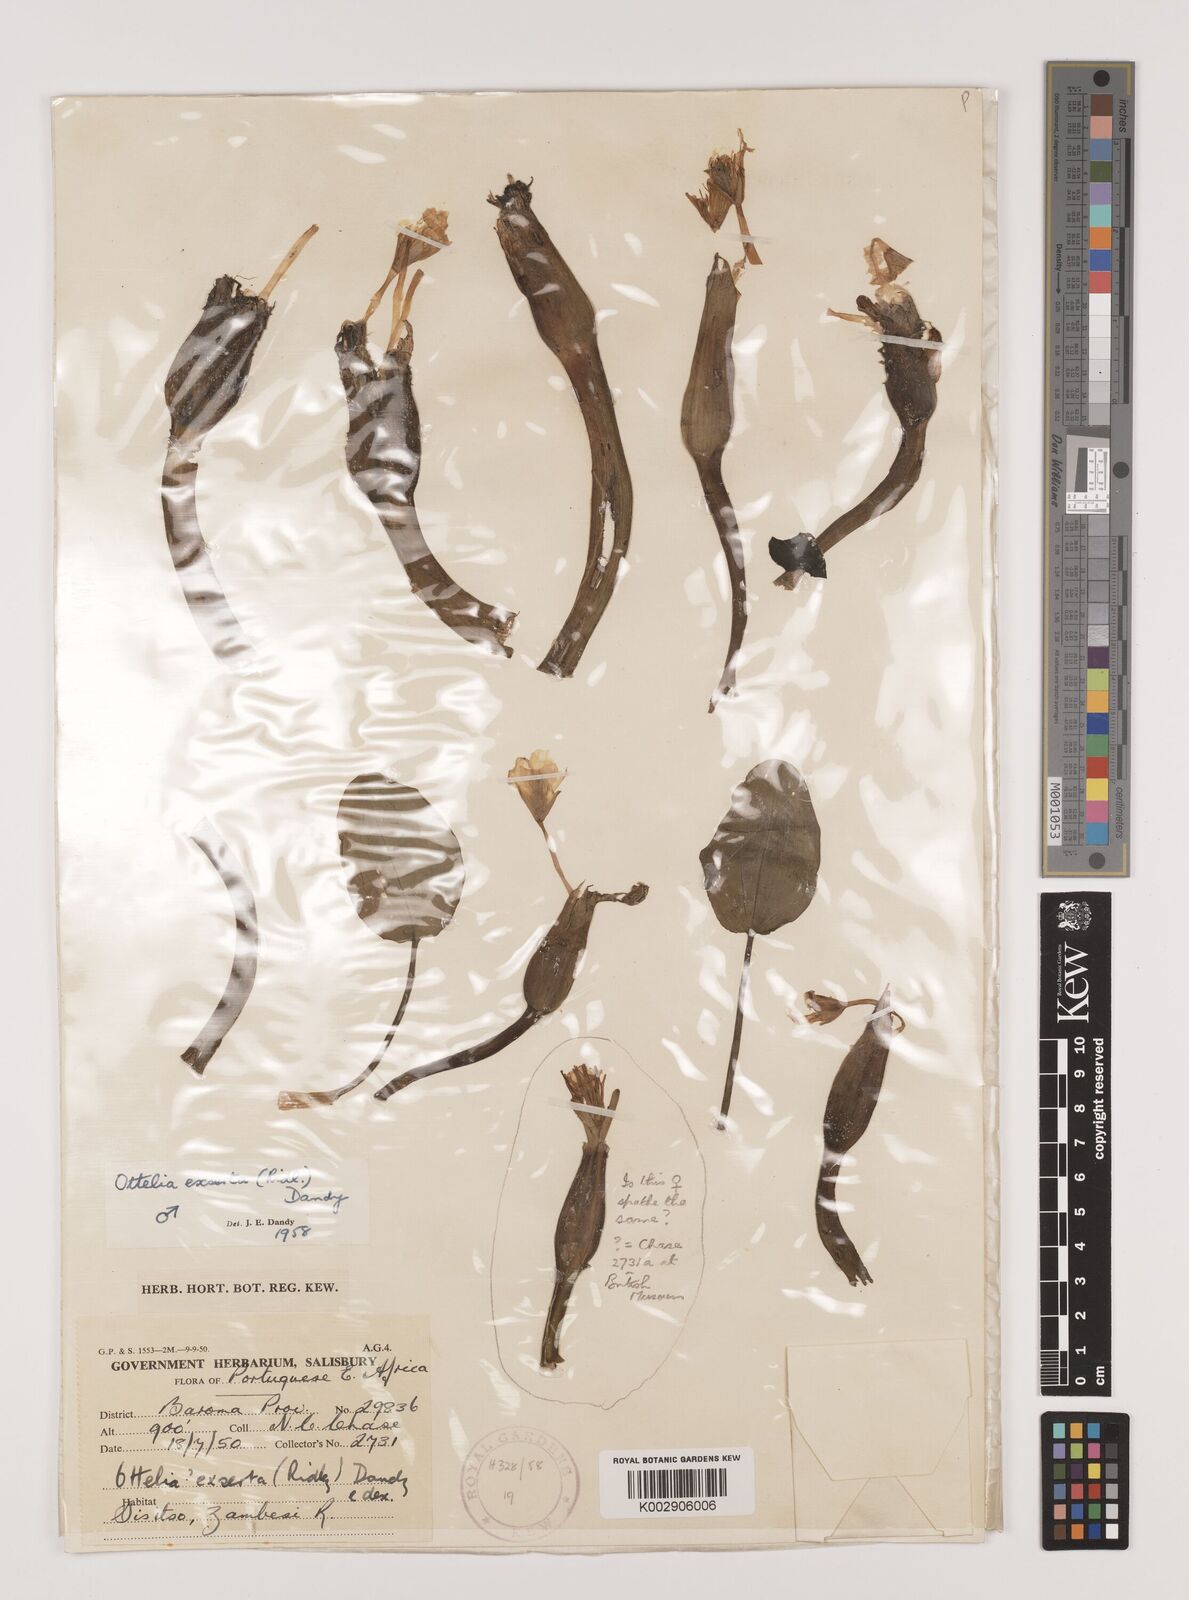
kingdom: Plantae
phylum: Tracheophyta
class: Liliopsida
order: Alismatales
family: Hydrocharitaceae
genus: Ottelia
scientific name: Ottelia exserta
